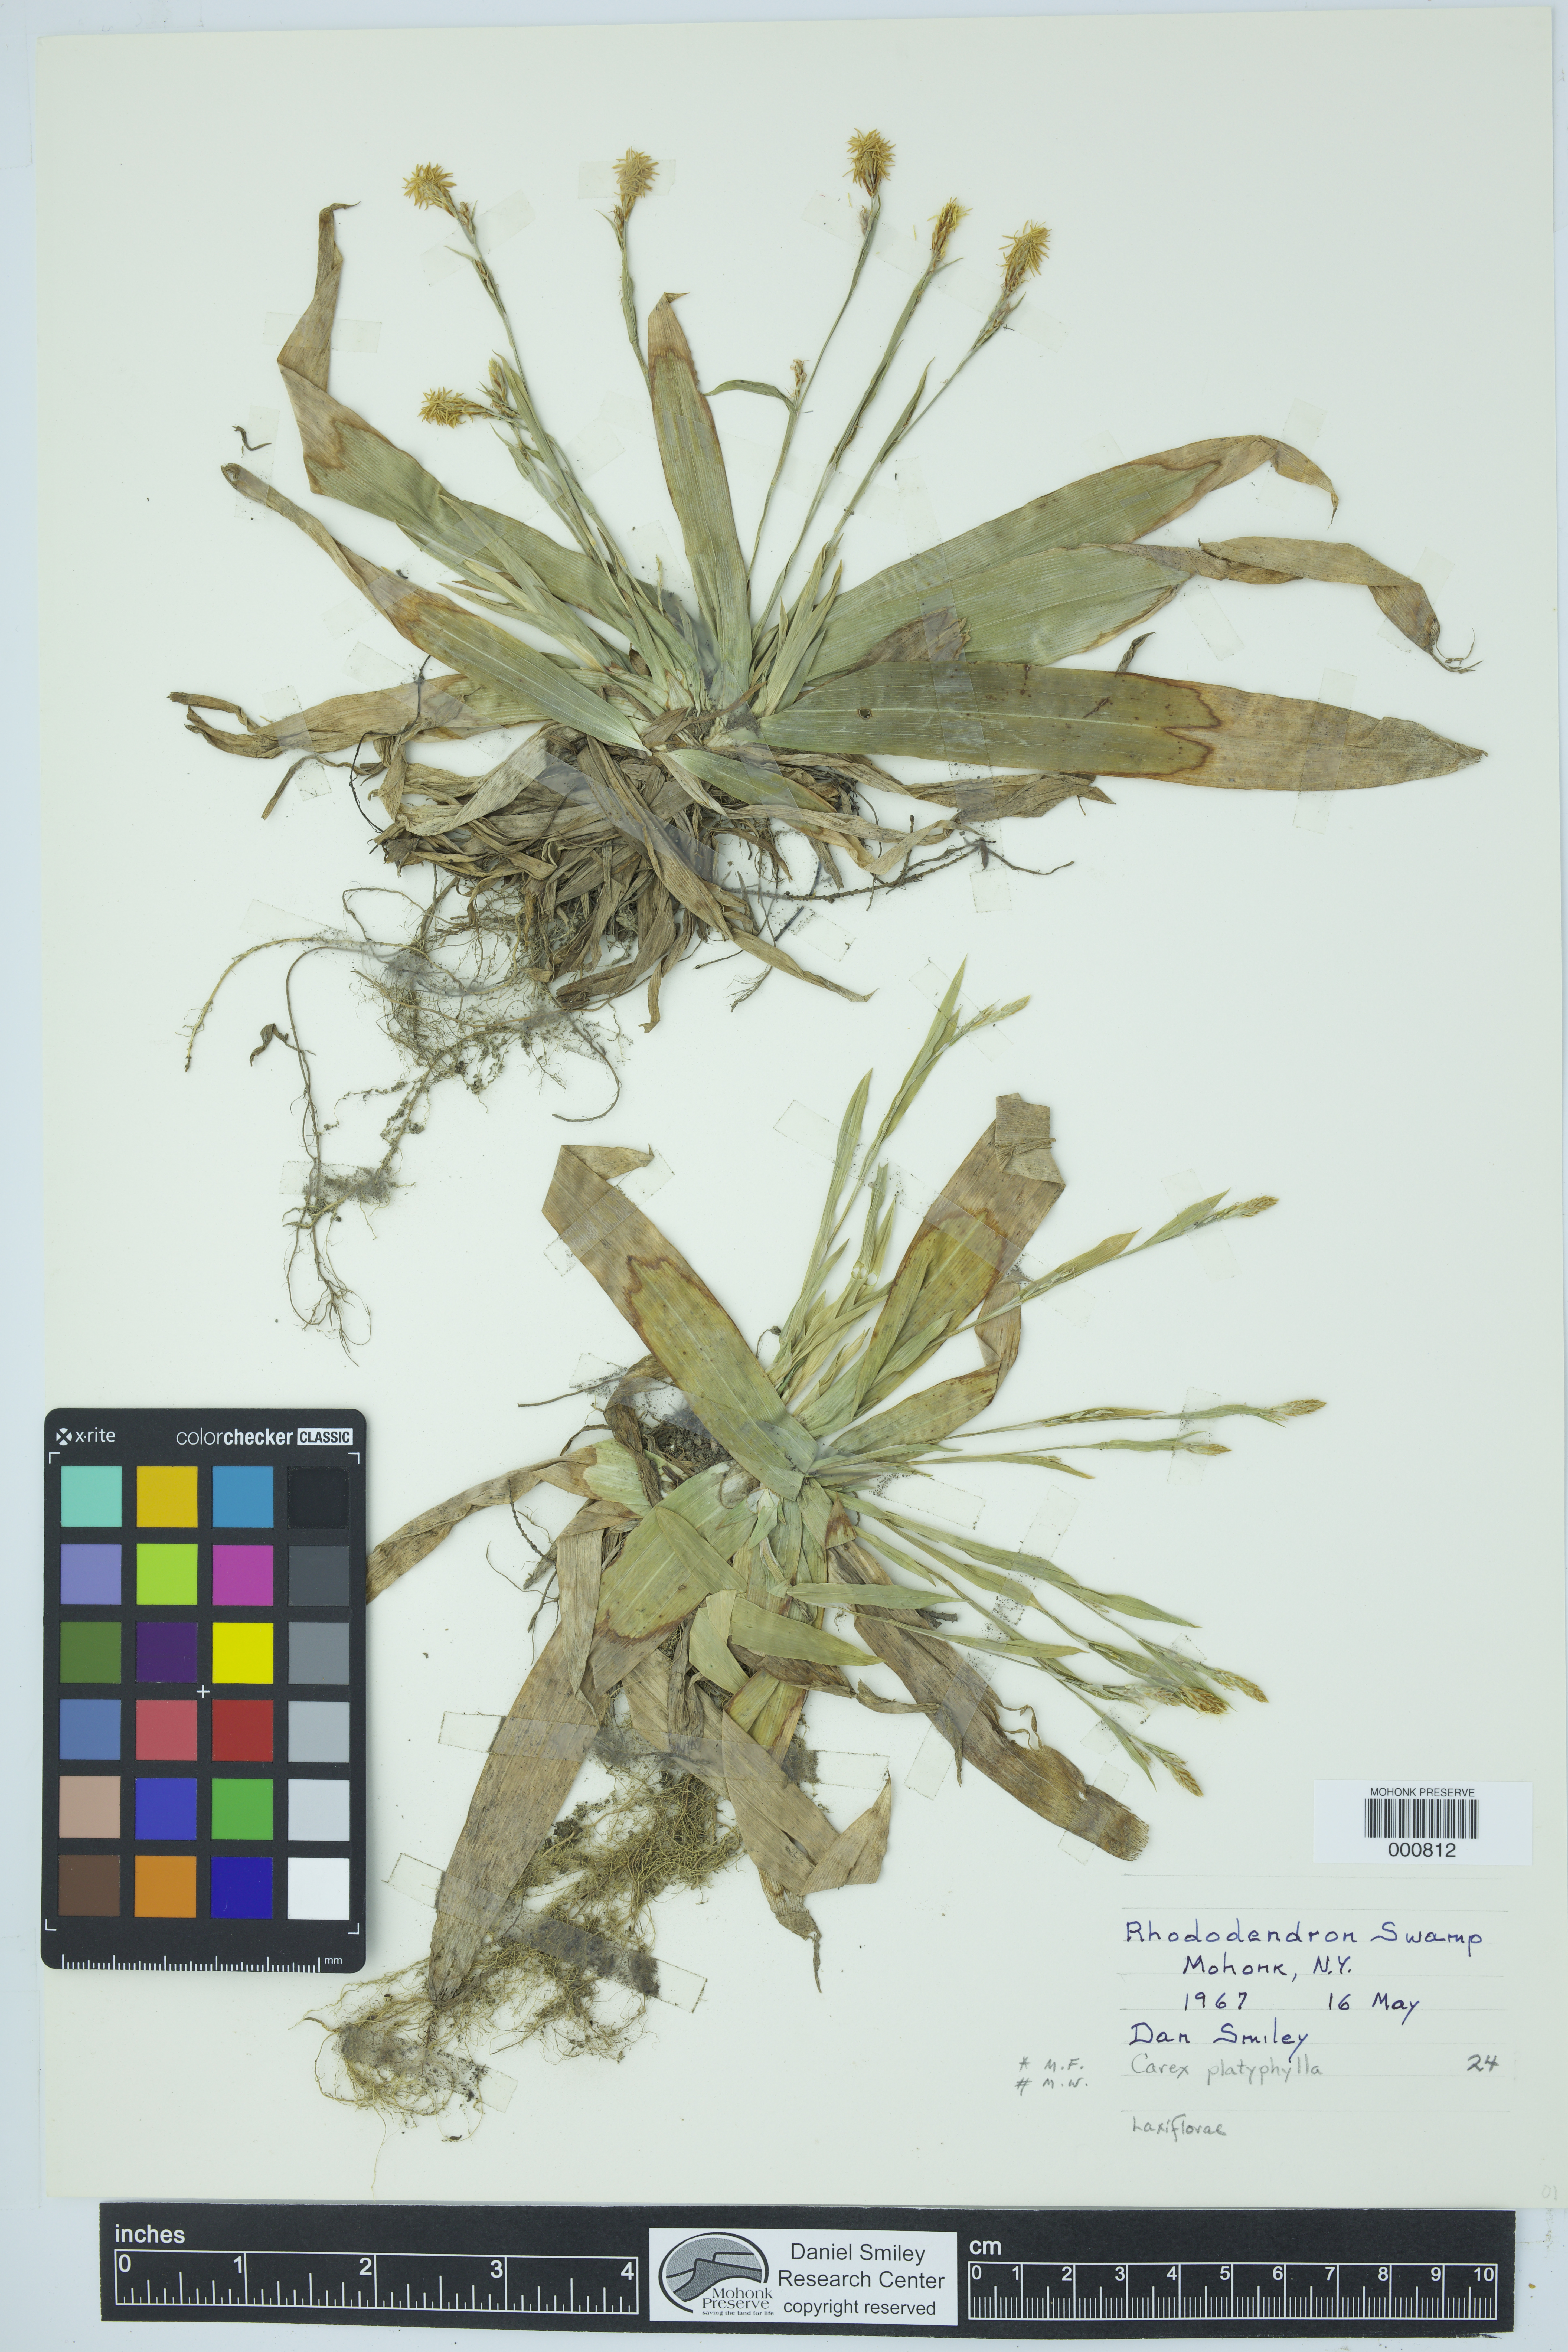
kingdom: Plantae
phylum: Tracheophyta
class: Liliopsida
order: Poales
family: Cyperaceae
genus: Carex
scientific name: Carex platyphylla
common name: Broad-leaved sedge
